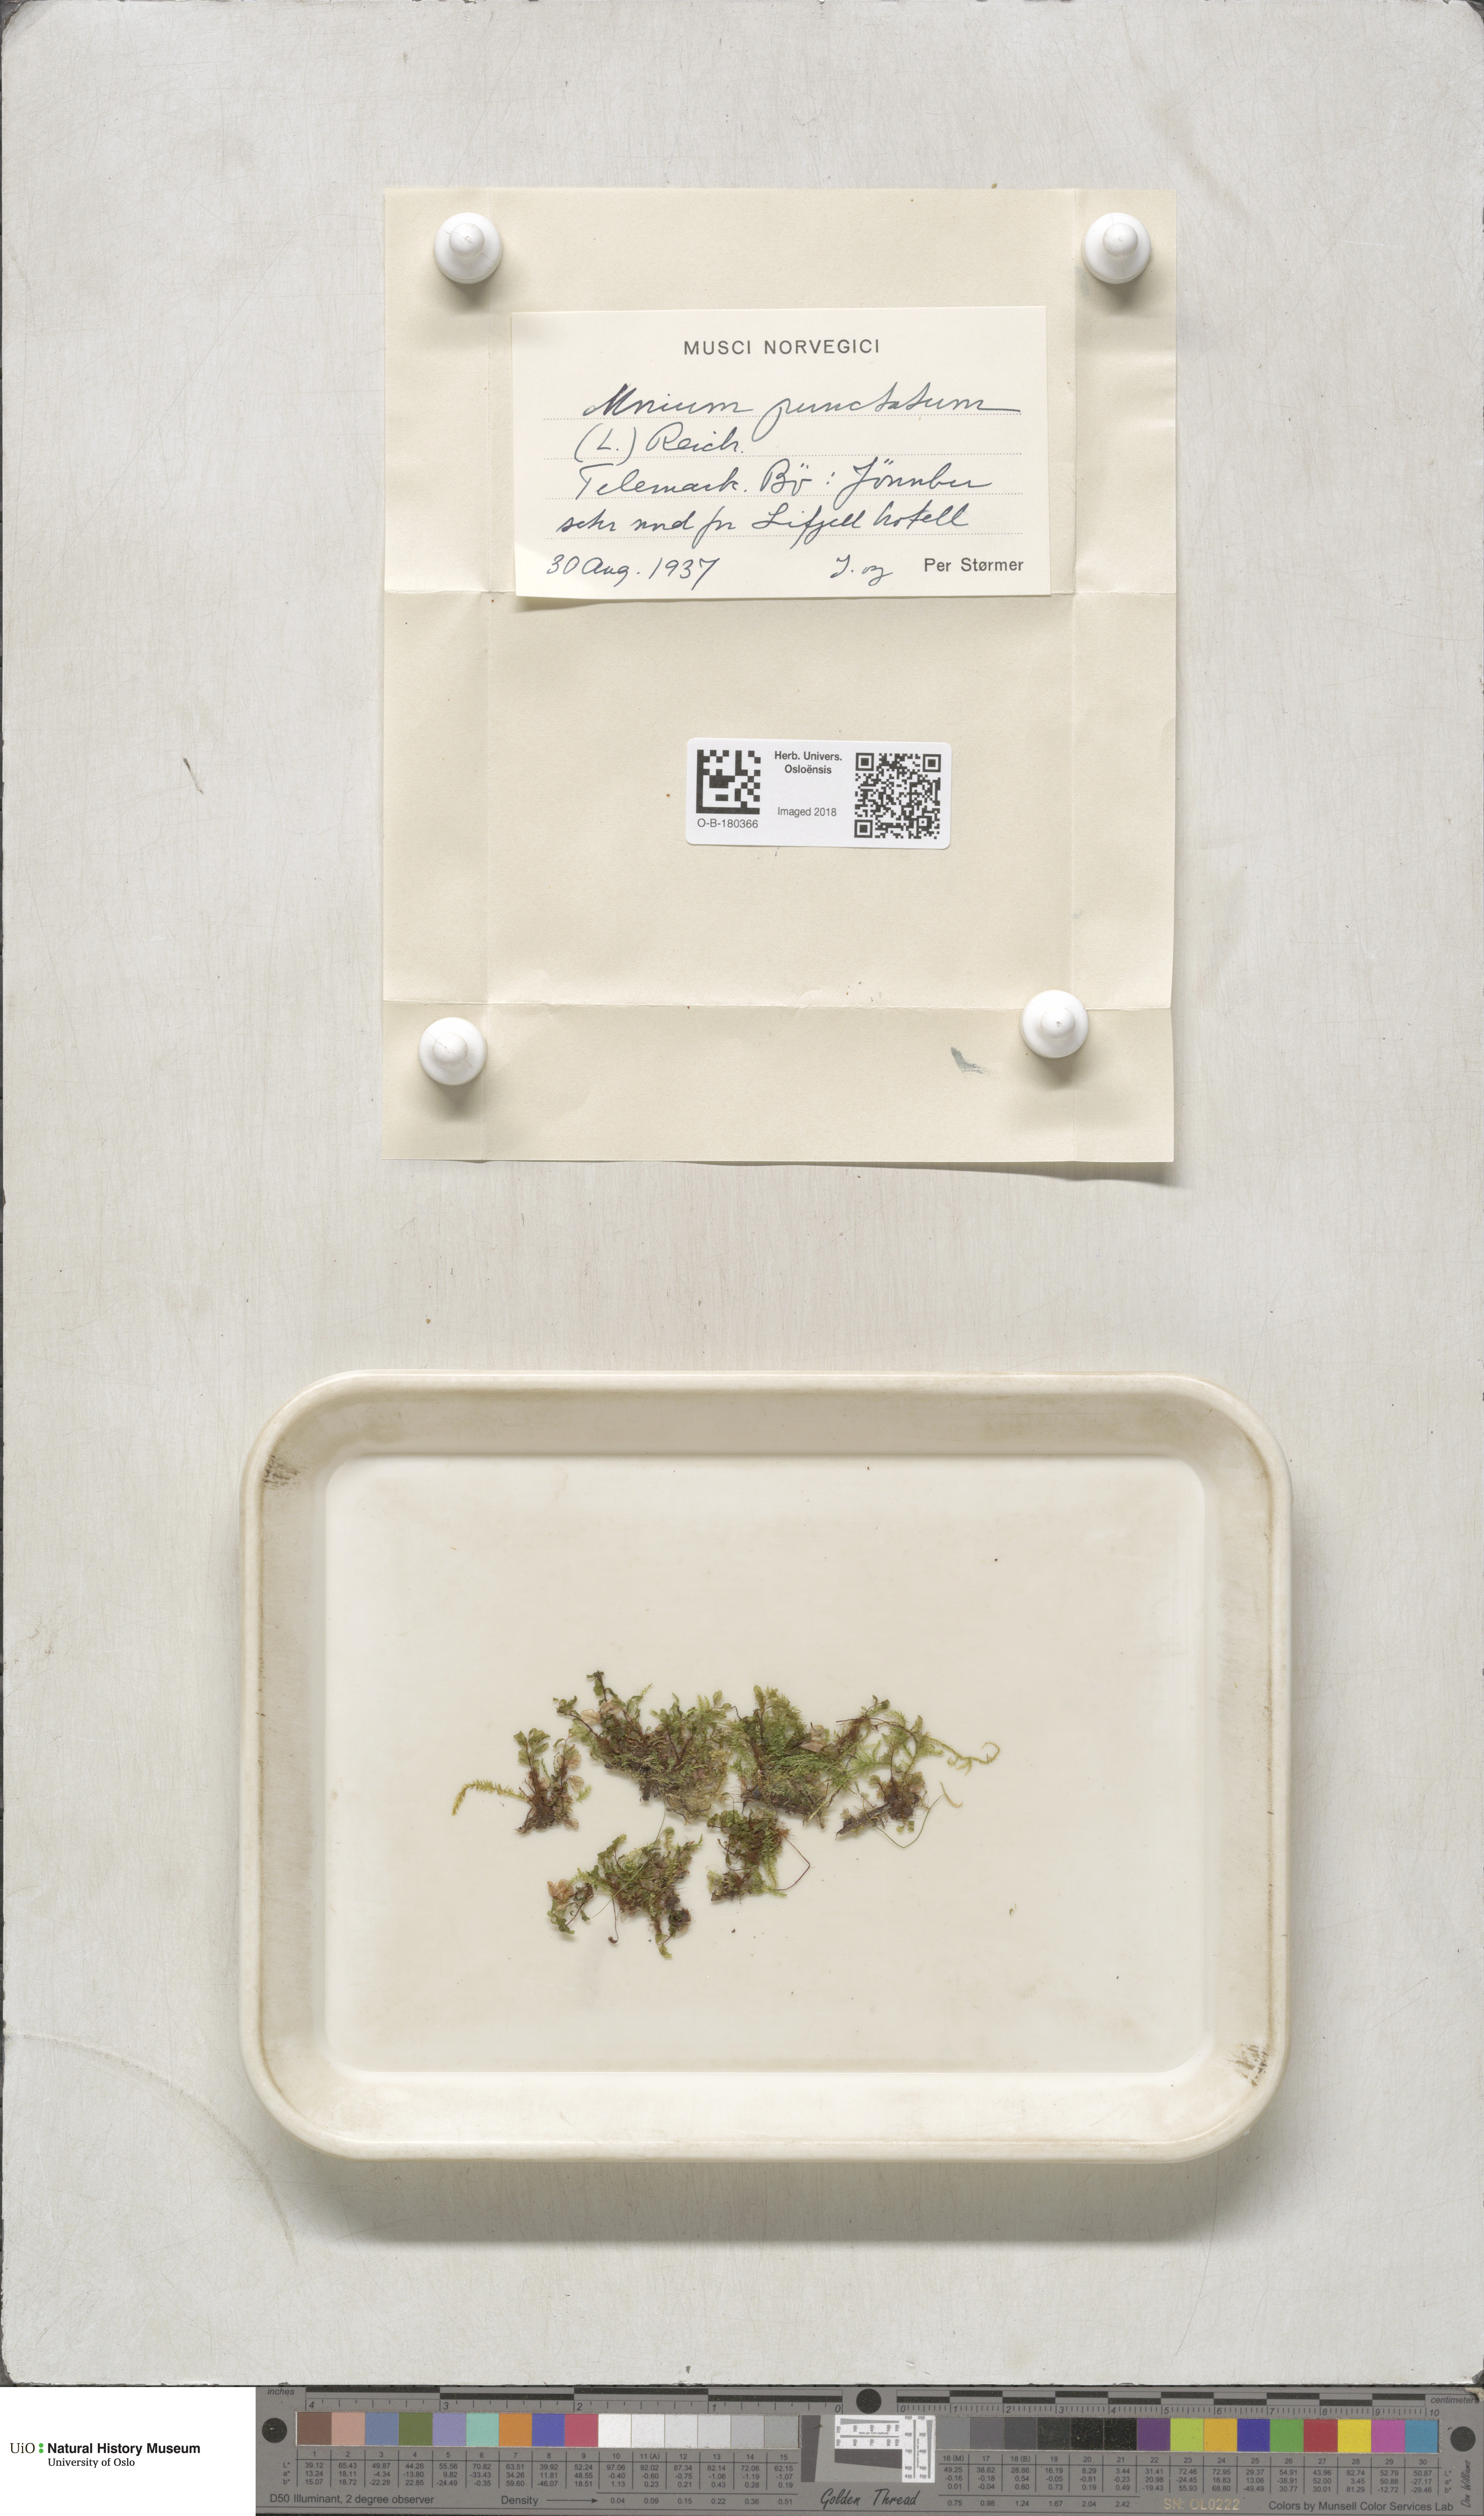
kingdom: Plantae
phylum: Bryophyta
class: Bryopsida
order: Bryales
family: Mniaceae
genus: Rhizomnium
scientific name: Rhizomnium punctatum
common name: Dotted leafy moss
